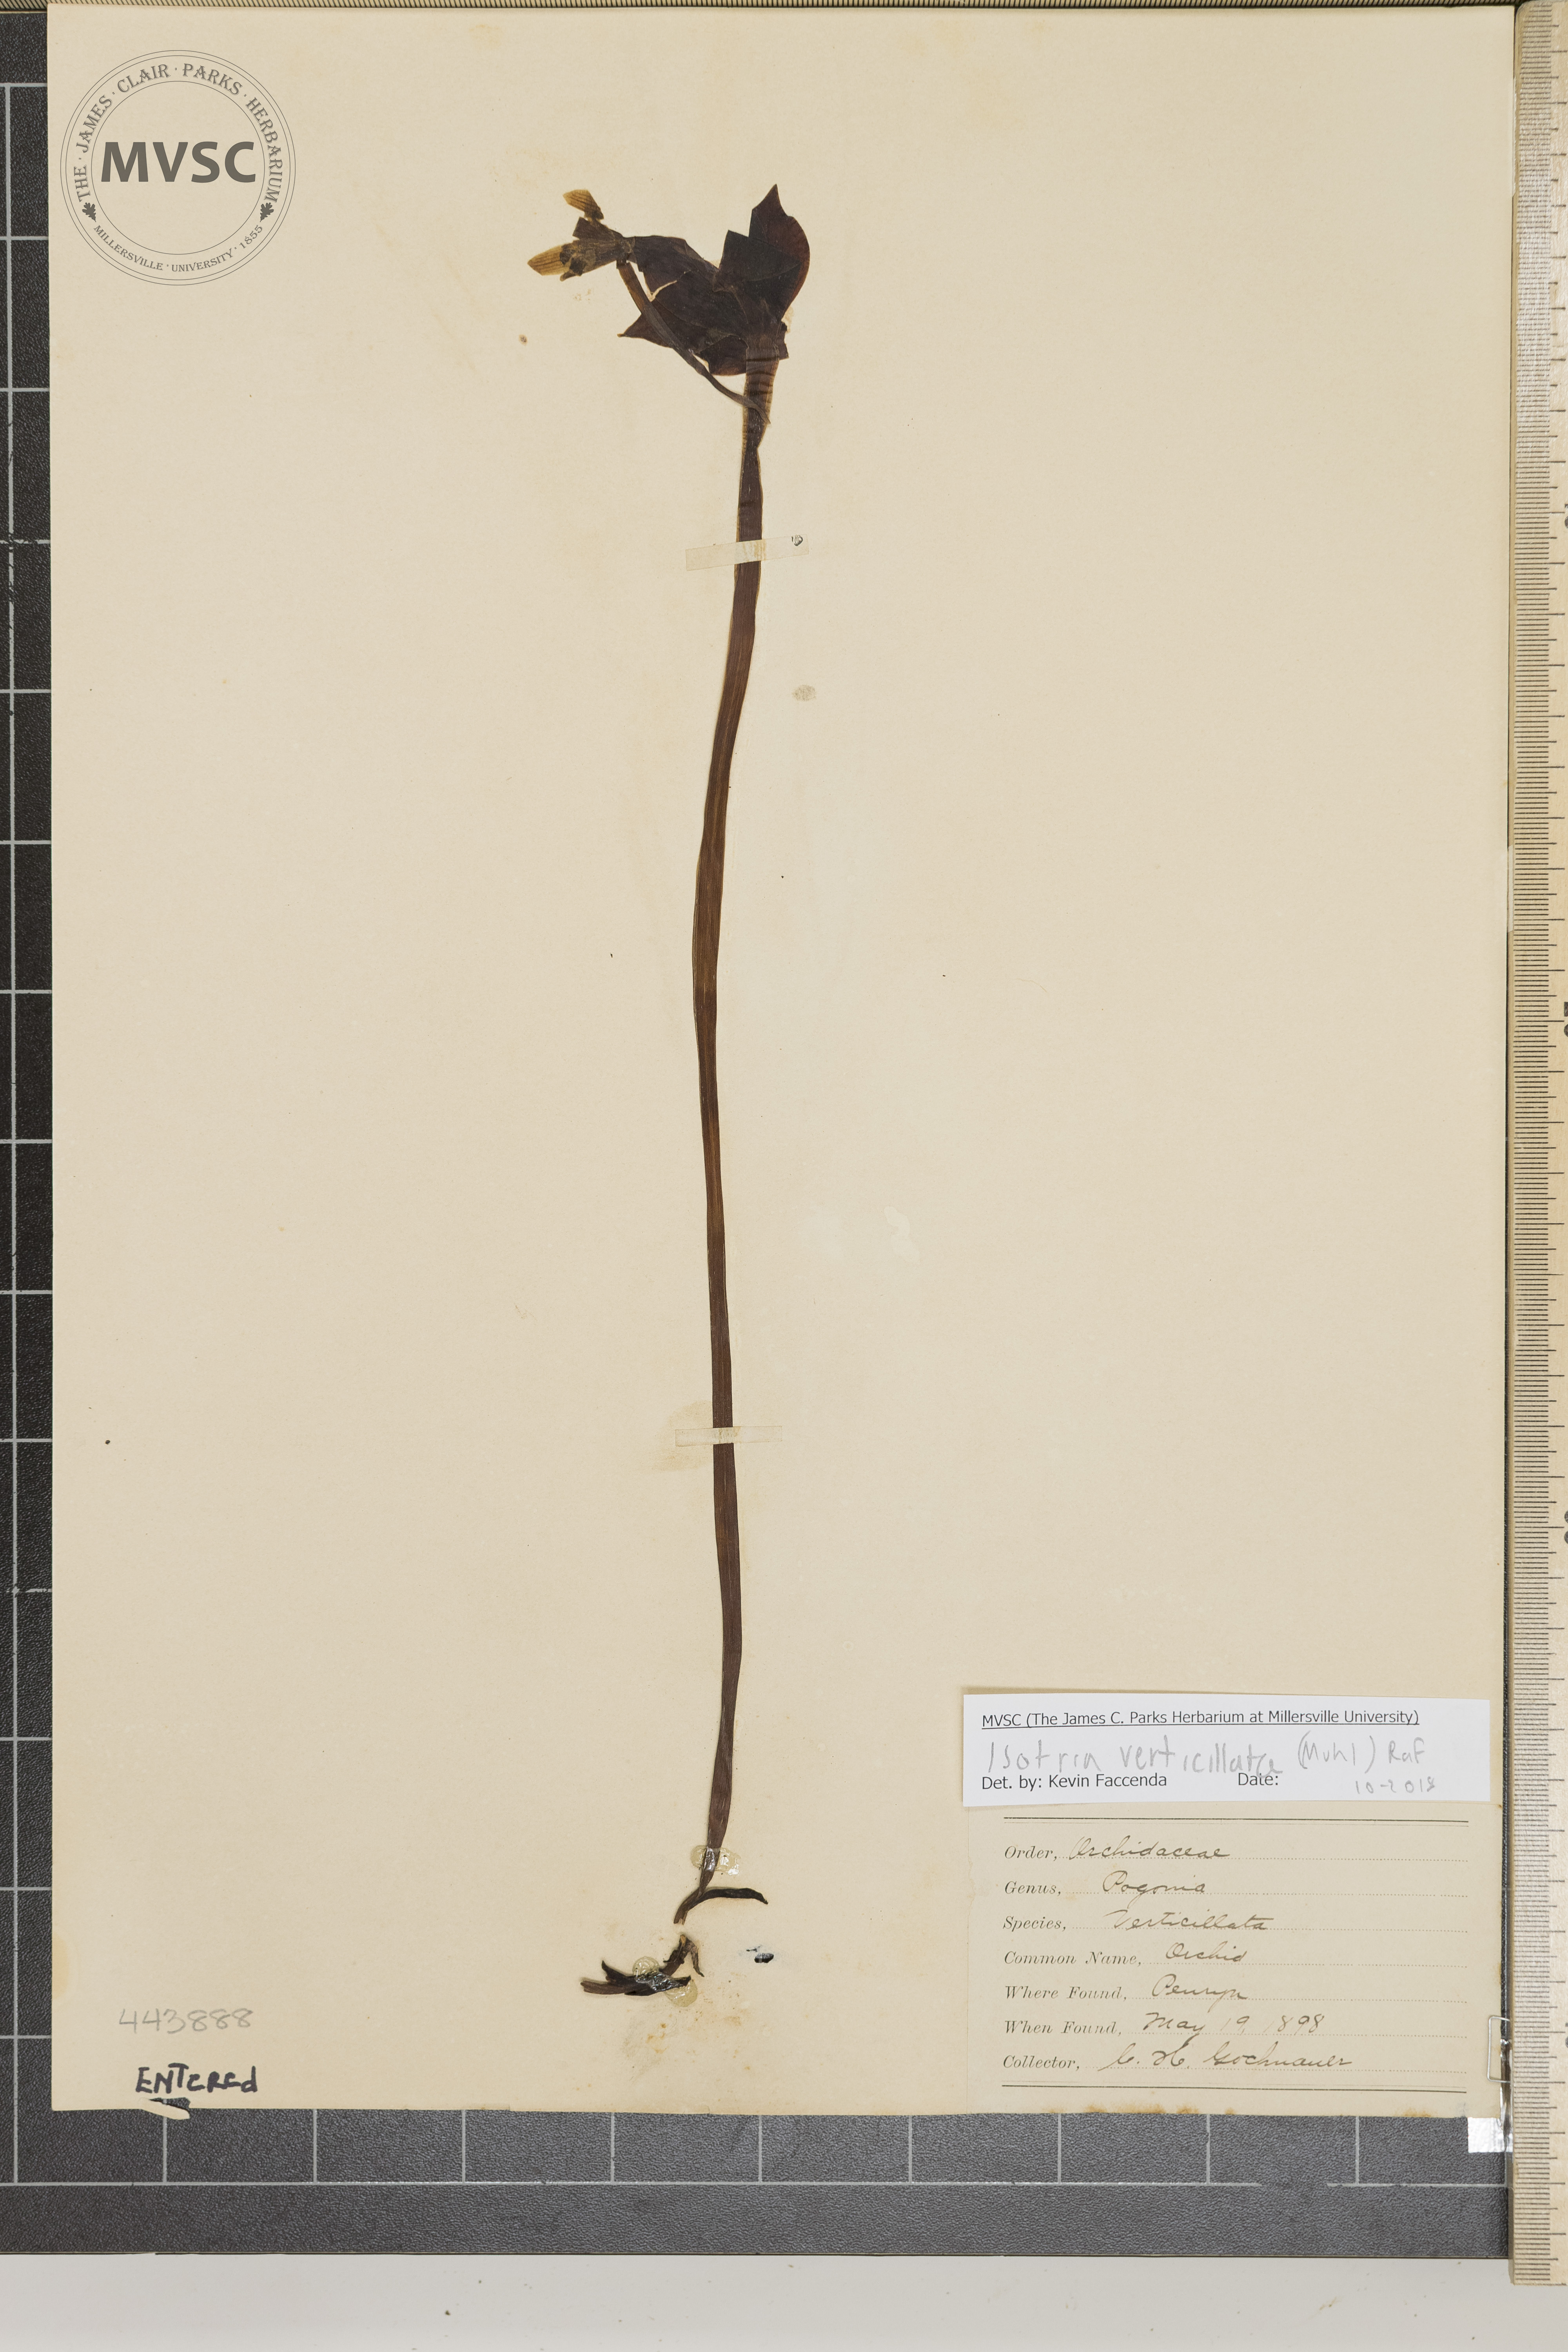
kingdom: Plantae
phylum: Tracheophyta
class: Liliopsida
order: Asparagales
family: Orchidaceae
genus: Isotria
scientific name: Isotria verticillata
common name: Orchid
